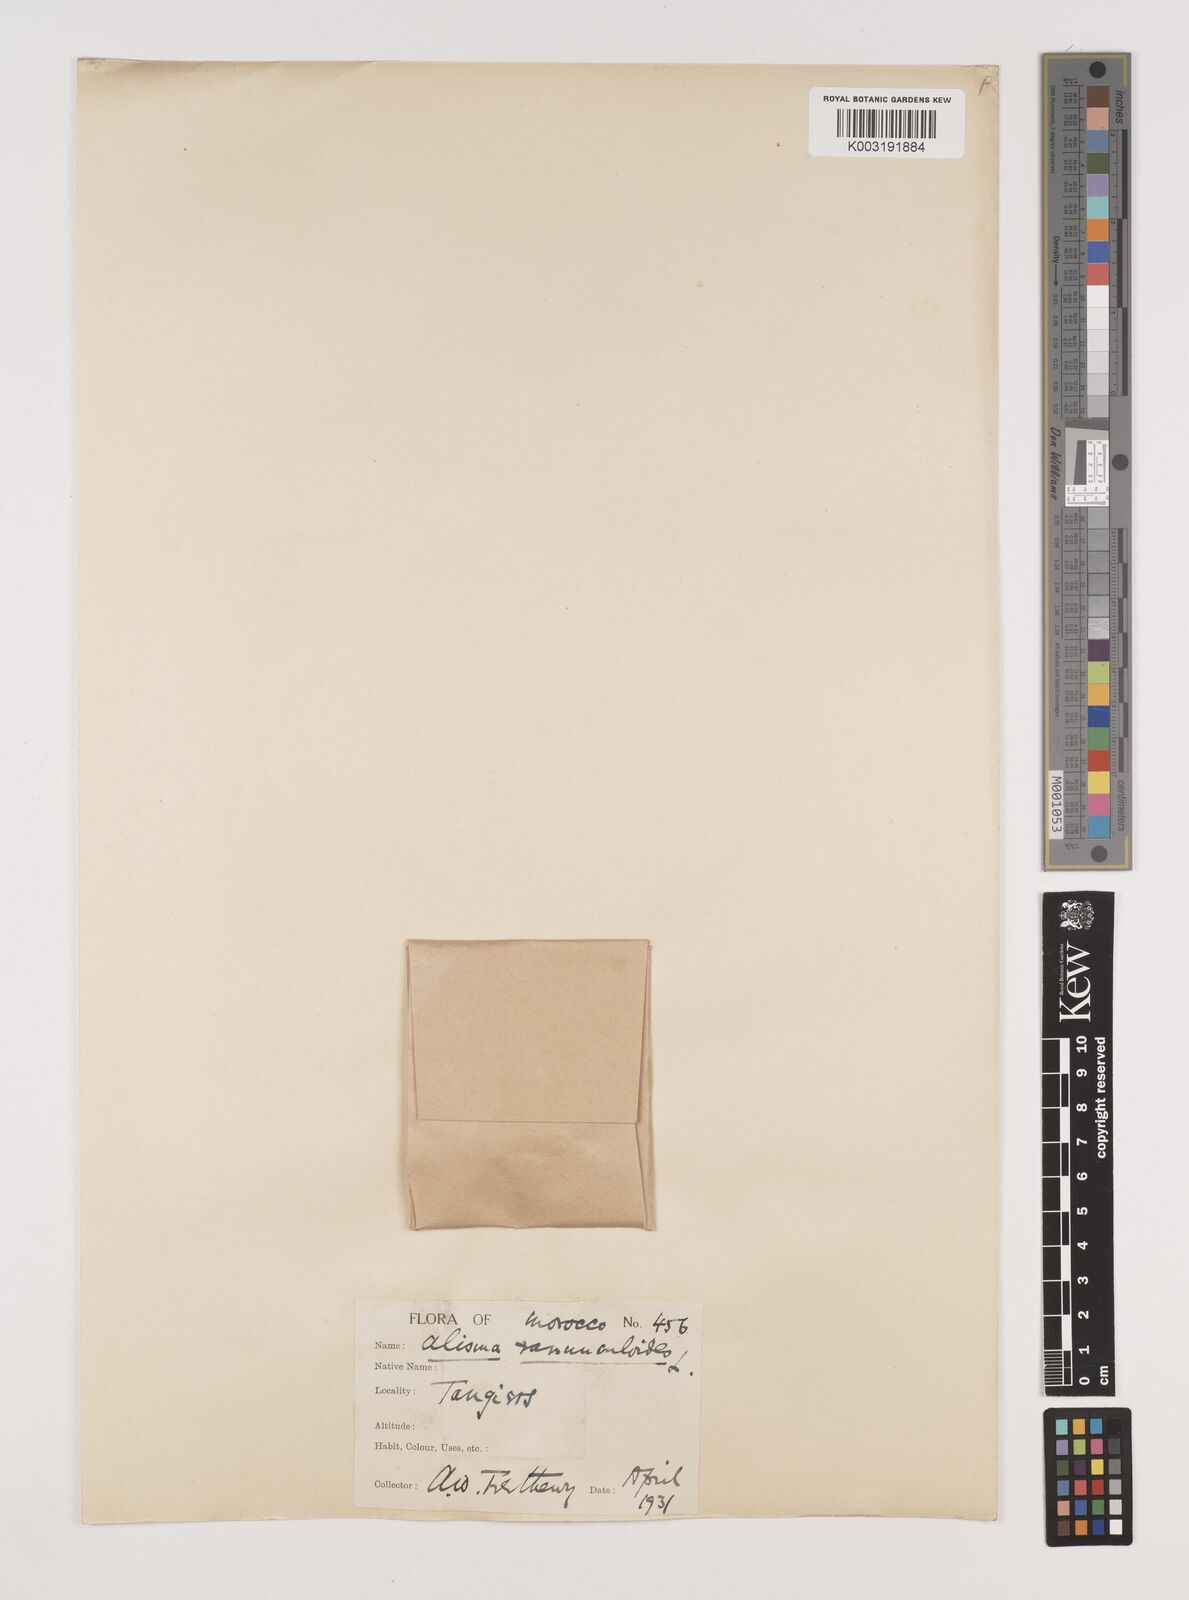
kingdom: Plantae
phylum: Tracheophyta
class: Liliopsida
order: Alismatales
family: Alismataceae
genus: Baldellia
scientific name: Baldellia ranunculoides
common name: Lesser water-plantain
